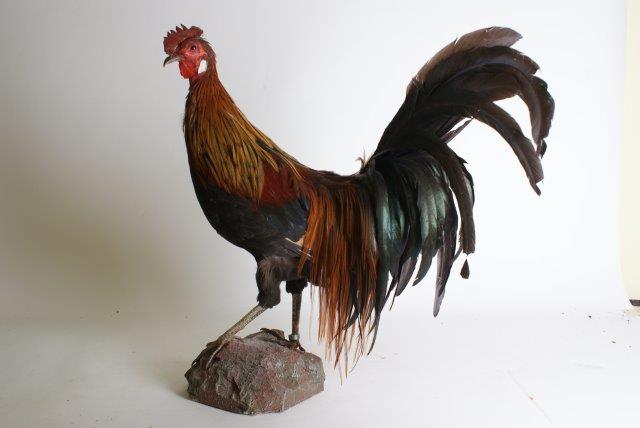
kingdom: Animalia
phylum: Chordata
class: Aves
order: Galliformes
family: Phasianidae
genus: Gallus
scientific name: Gallus gallus
